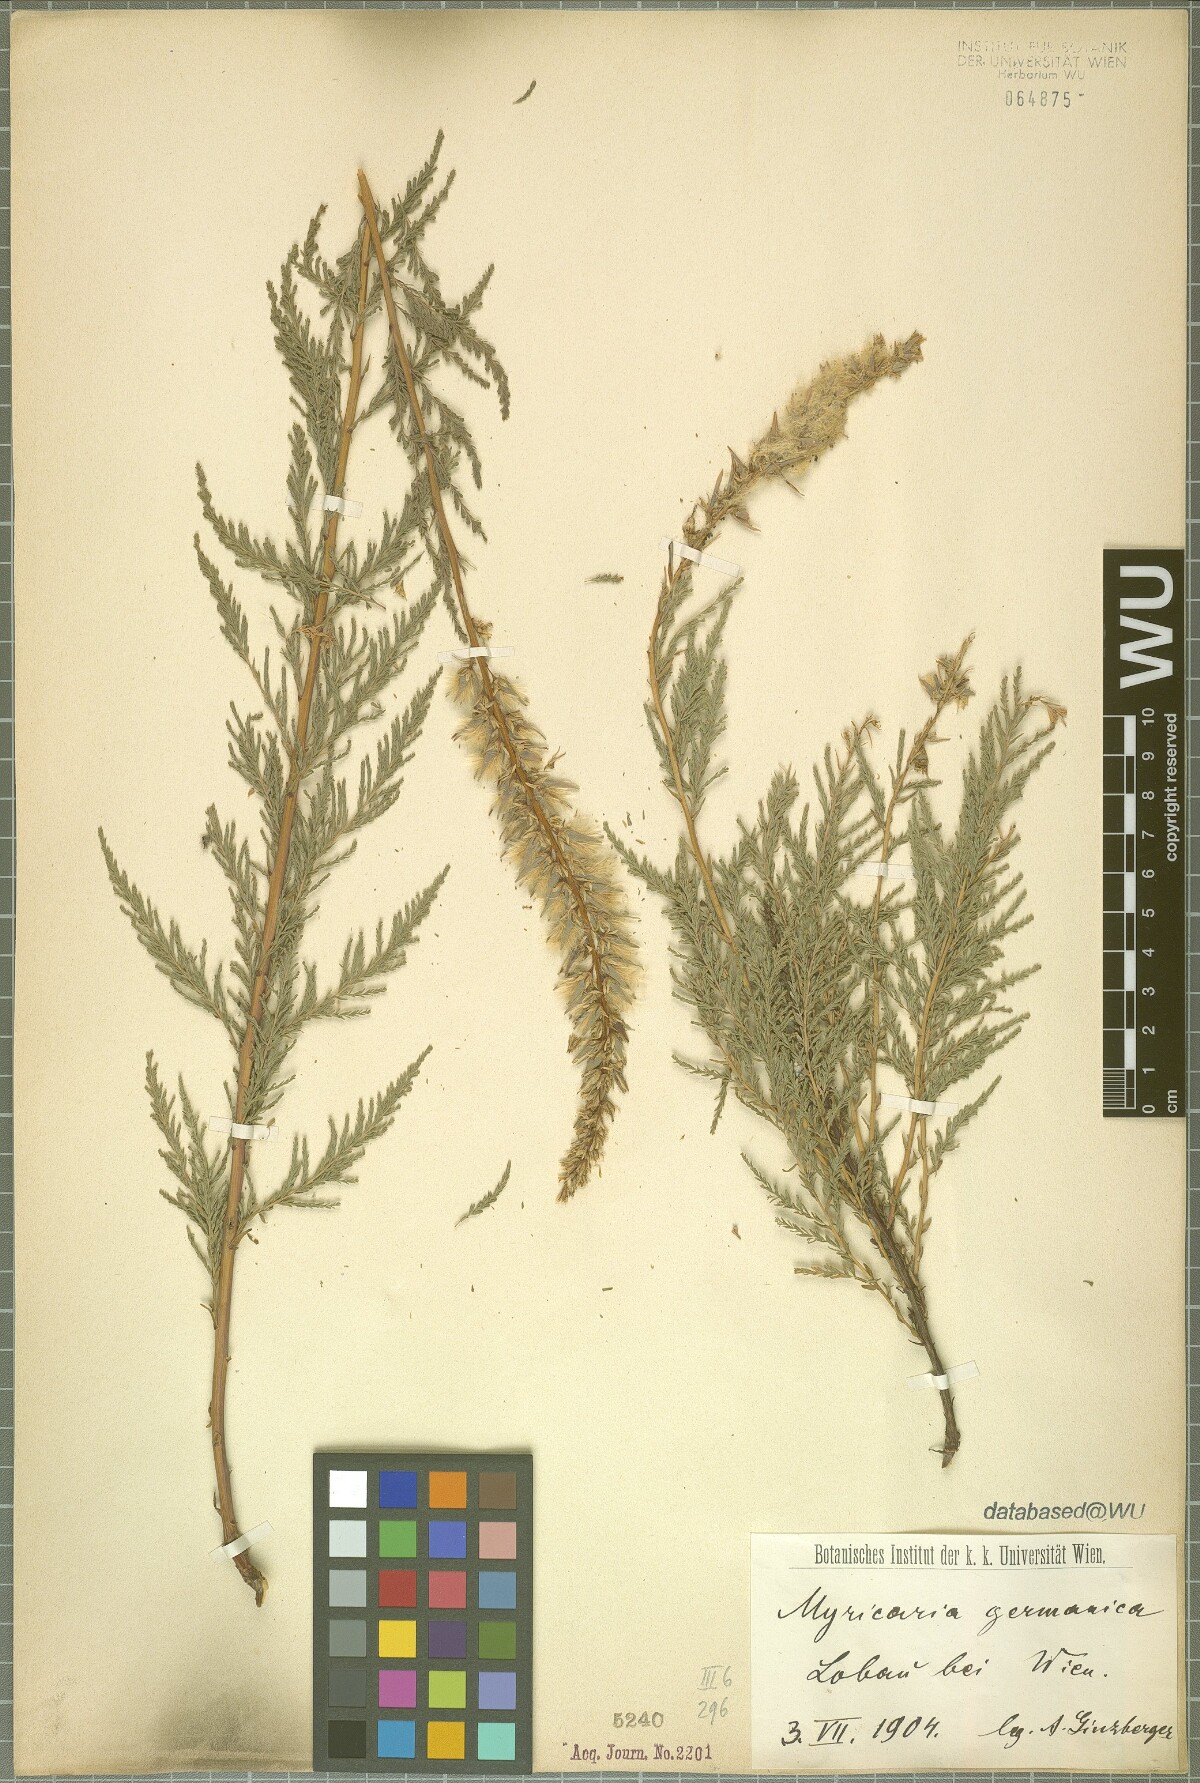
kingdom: Plantae
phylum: Tracheophyta
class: Magnoliopsida
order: Caryophyllales
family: Tamaricaceae
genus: Myricaria
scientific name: Myricaria germanica
